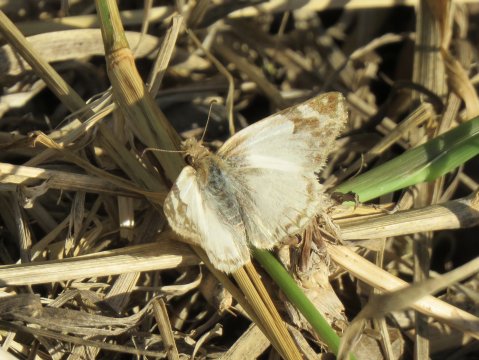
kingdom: Animalia
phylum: Arthropoda
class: Insecta
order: Lepidoptera
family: Hesperiidae
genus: Heliopetes
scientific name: Heliopetes laviana
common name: Laviana White-Skipper
